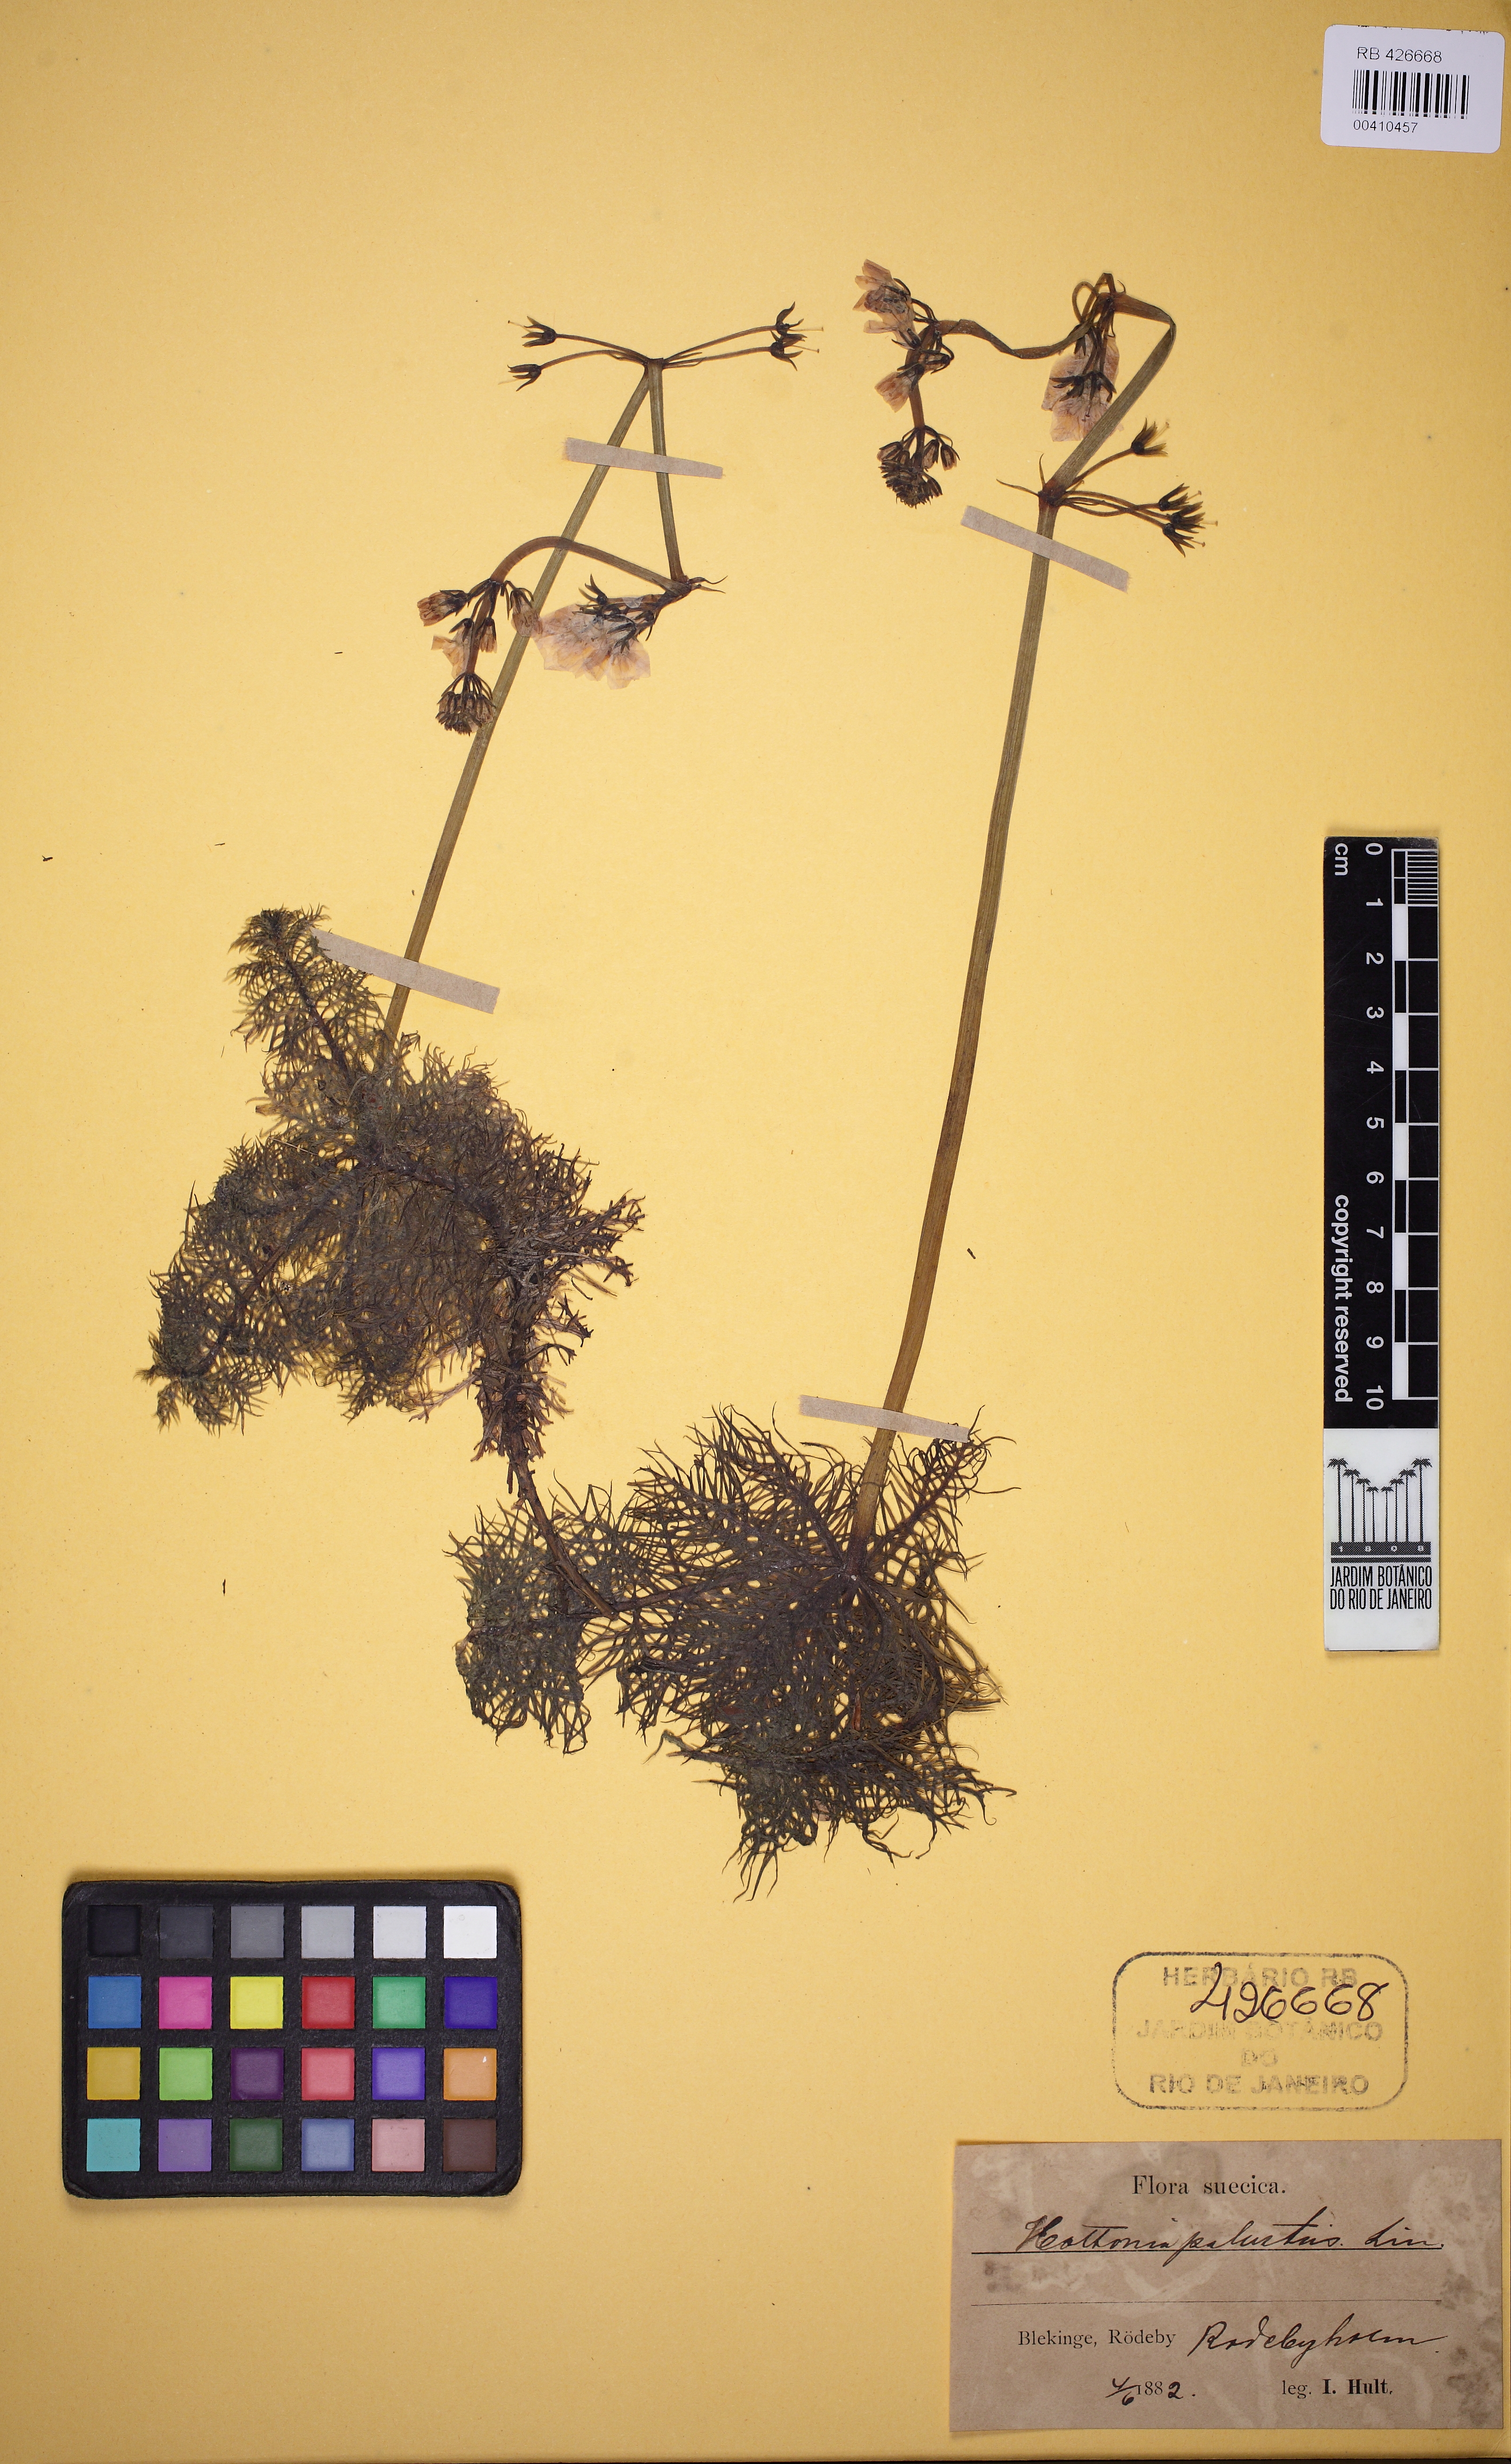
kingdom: Plantae
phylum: Tracheophyta
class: Magnoliopsida
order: Ericales
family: Primulaceae
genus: Hottonia
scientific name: Hottonia palustris
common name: Water-violet
